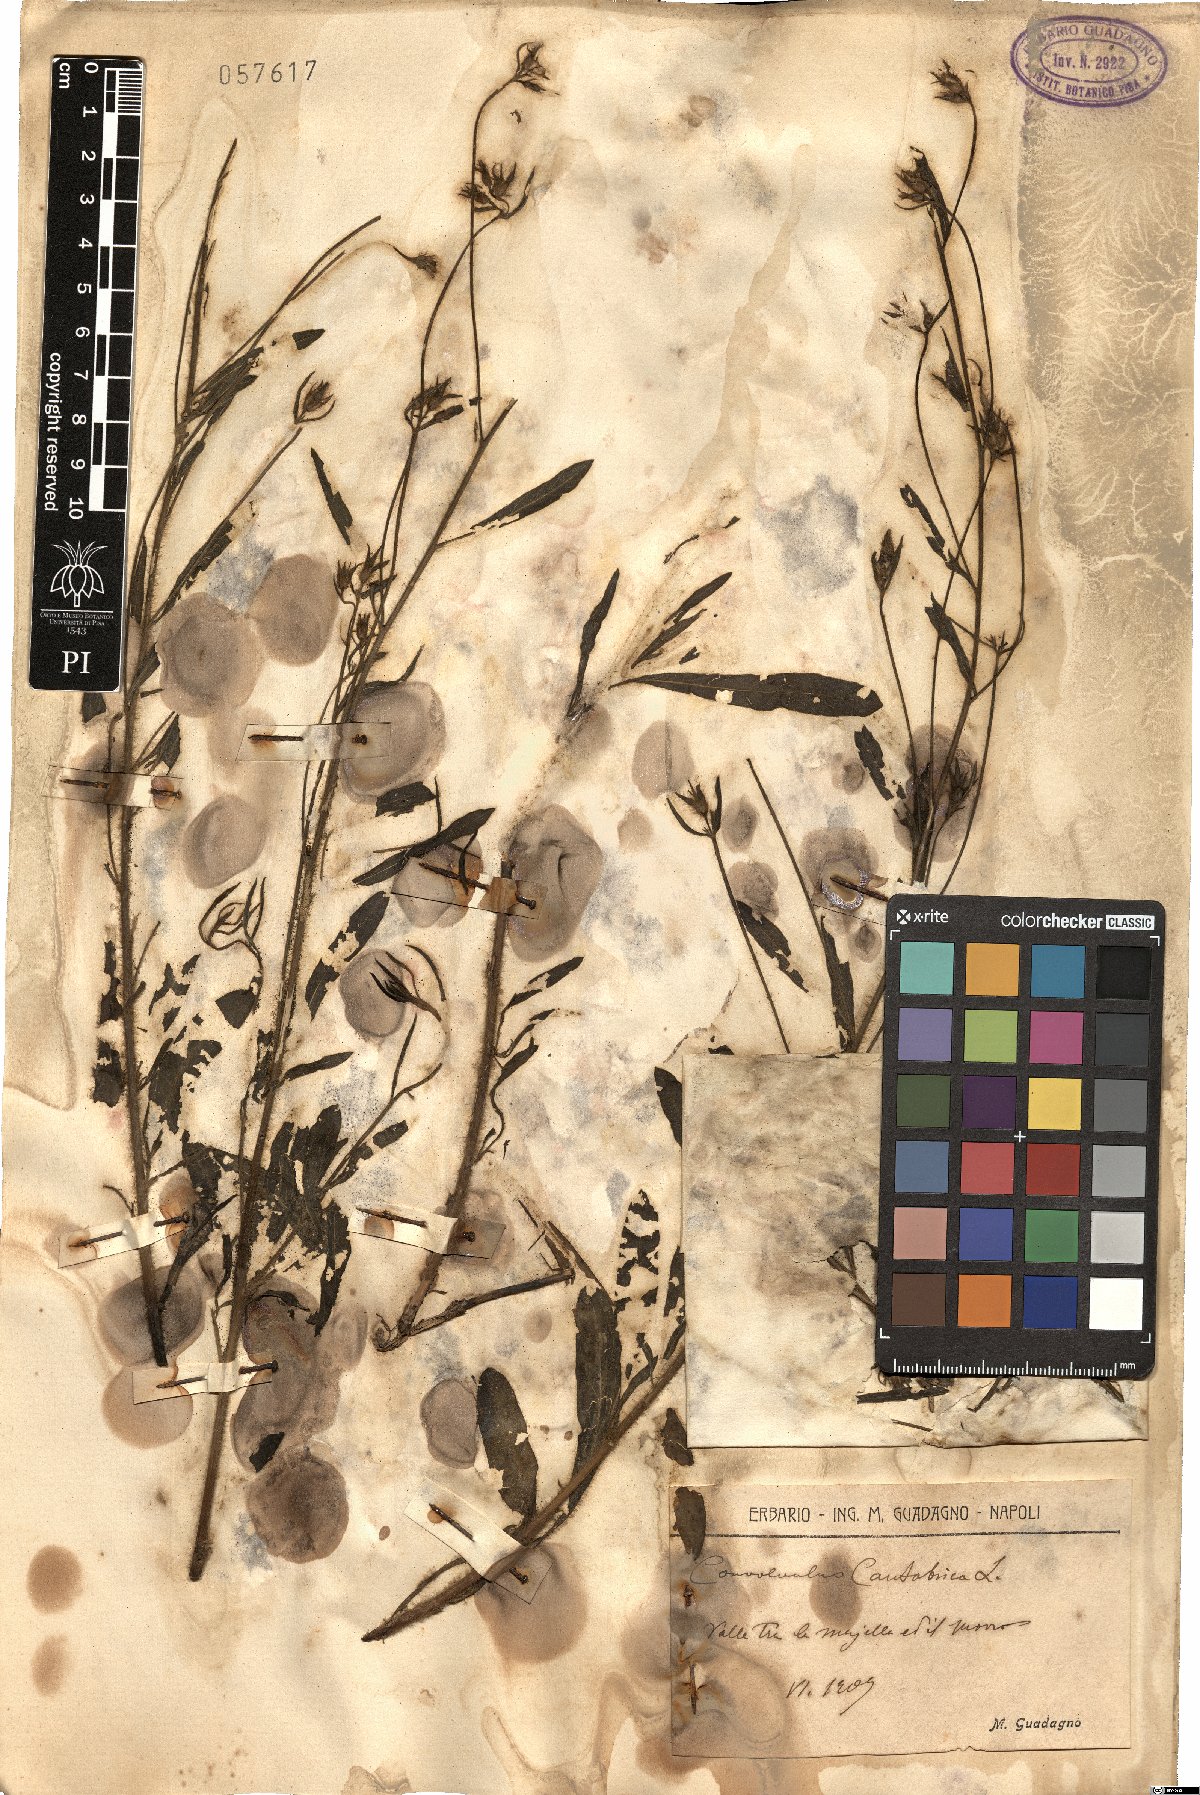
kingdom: Plantae
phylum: Tracheophyta
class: Magnoliopsida
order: Solanales
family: Convolvulaceae
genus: Convolvulus
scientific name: Convolvulus cantabrica
